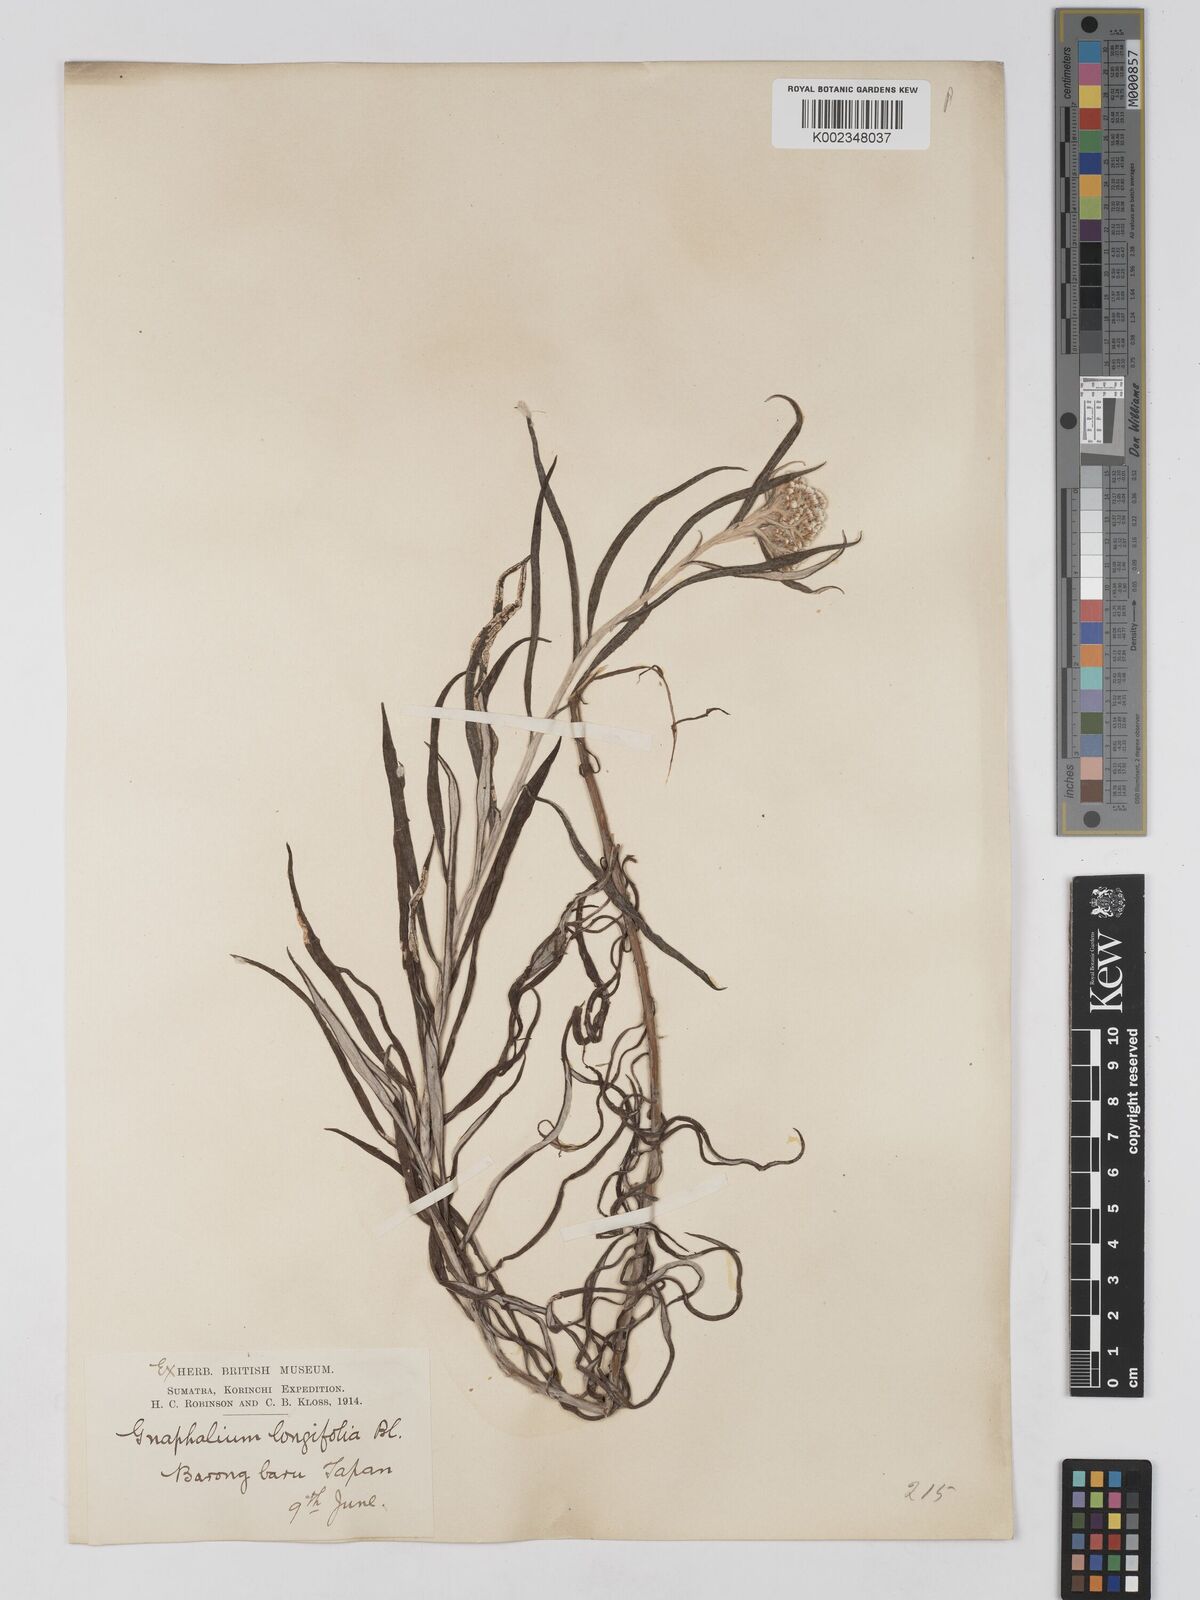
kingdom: Plantae
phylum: Tracheophyta
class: Magnoliopsida
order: Asterales
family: Asteraceae
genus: Anaphalis
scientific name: Anaphalis longifolia
